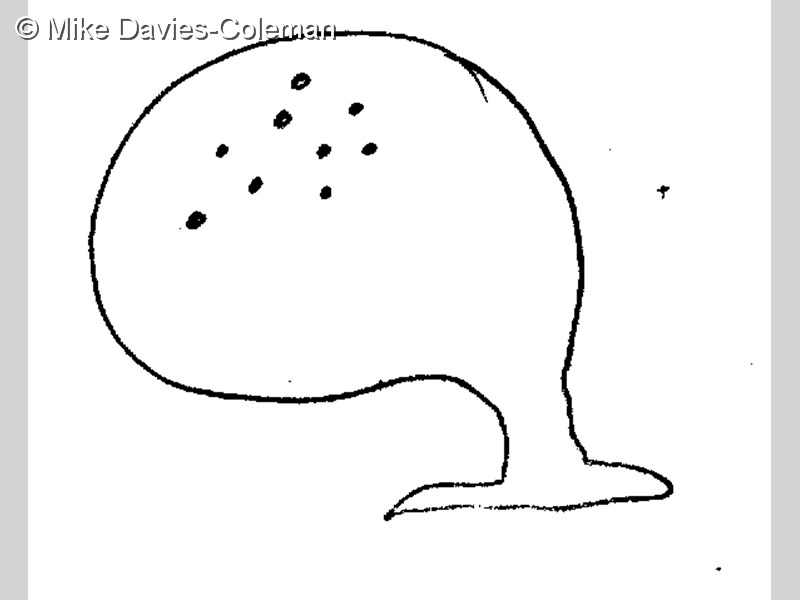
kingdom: Animalia
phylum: Chordata
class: Ascidiacea
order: Stolidobranchia
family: Styelidae
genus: Gynandrocarpa
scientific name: Gynandrocarpa placenta
